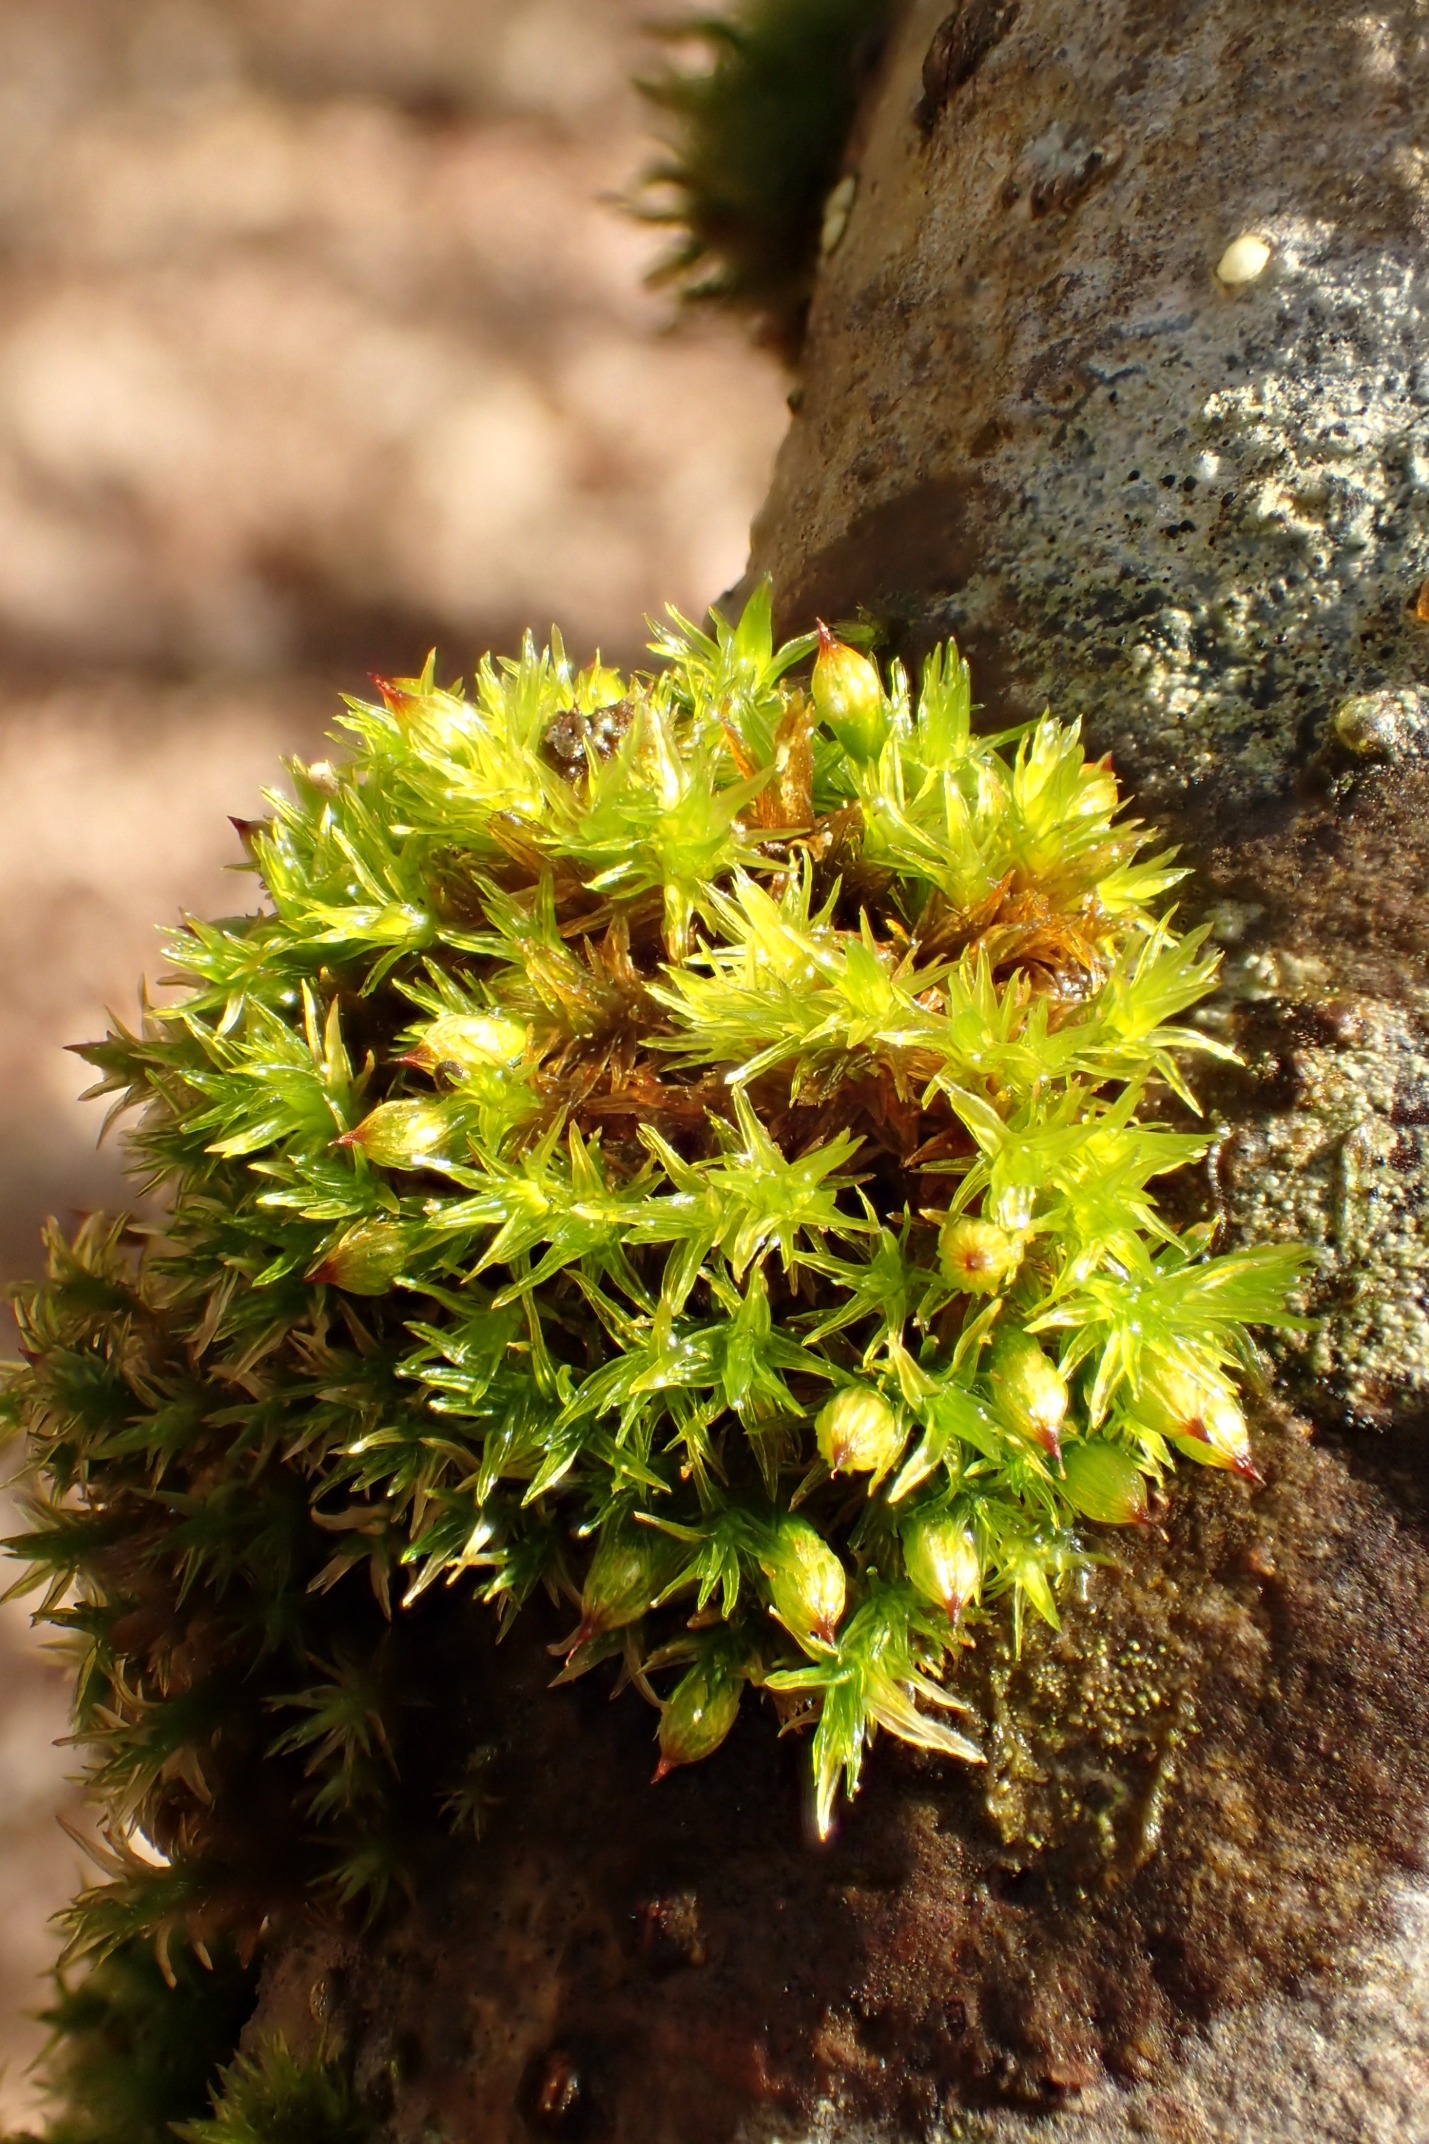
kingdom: Plantae
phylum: Bryophyta
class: Bryopsida
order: Orthotrichales
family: Orthotrichaceae
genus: Orthotrichum
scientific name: Orthotrichum stramineum
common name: Strågul furehætte
